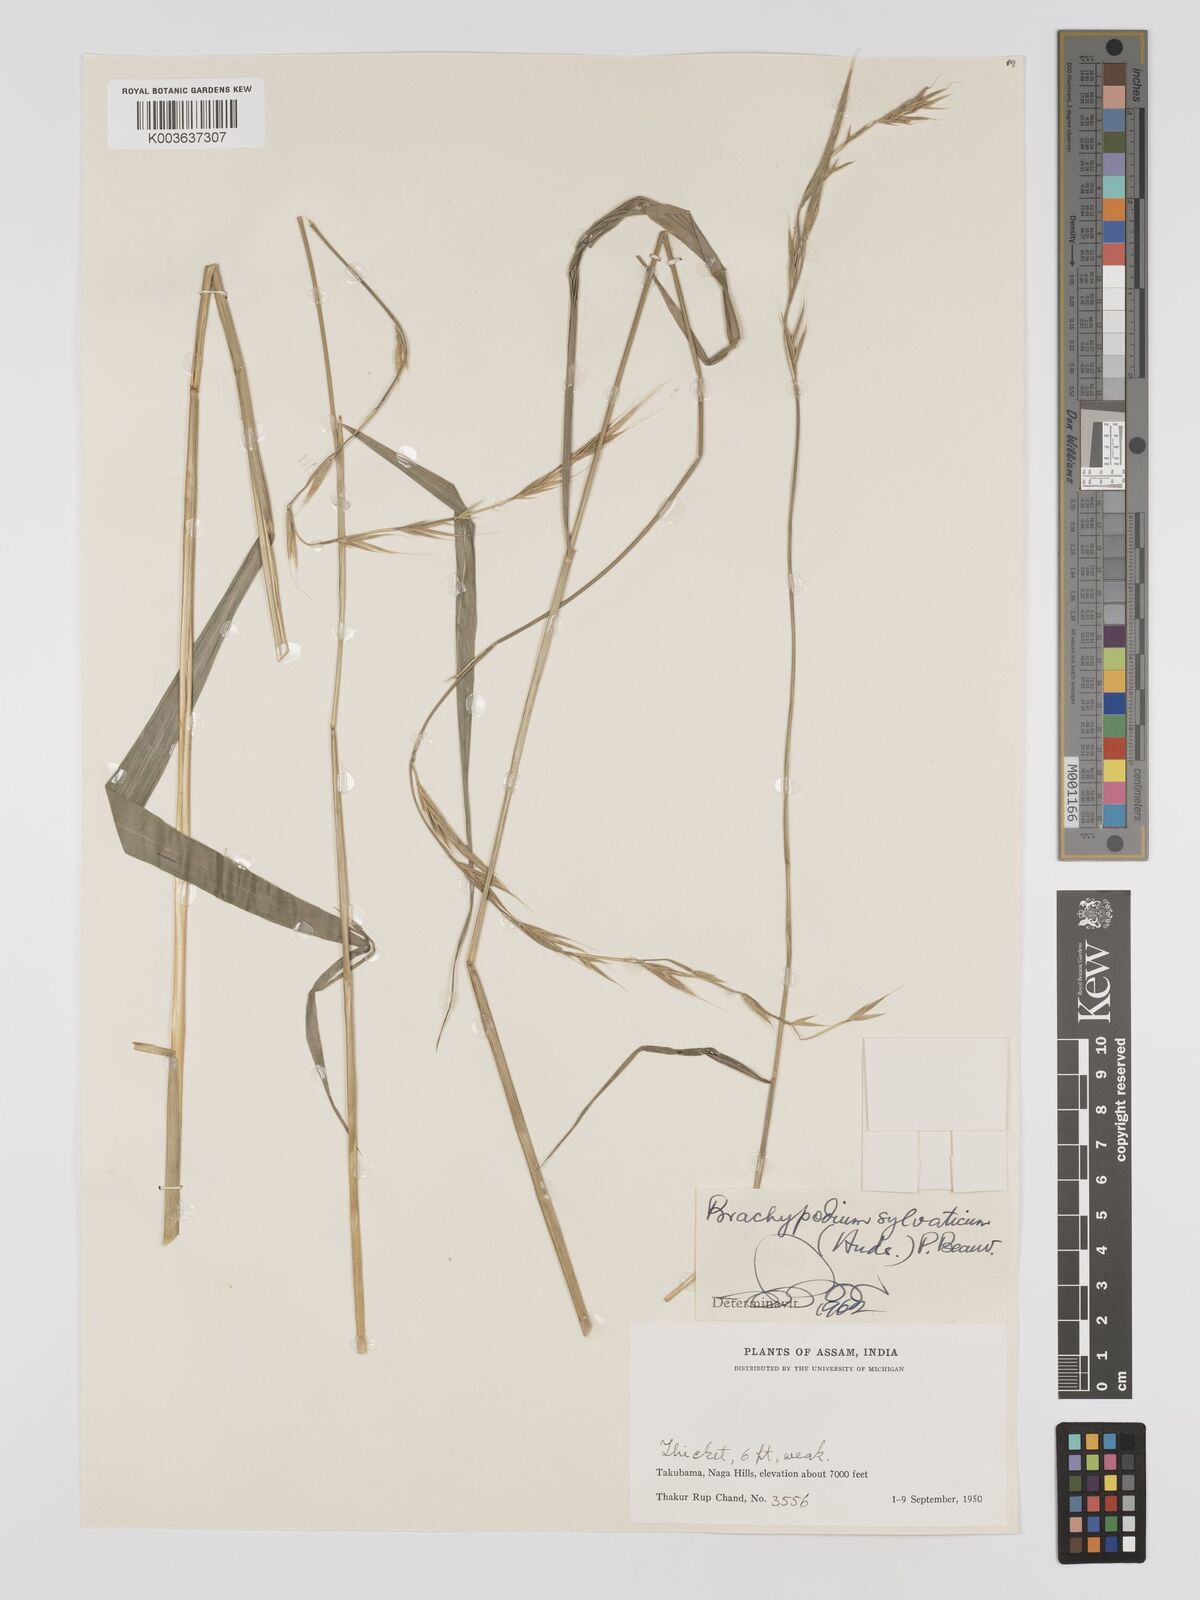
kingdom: Plantae
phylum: Tracheophyta
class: Liliopsida
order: Poales
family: Poaceae
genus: Brachypodium
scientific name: Brachypodium sylvaticum
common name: False-brome
